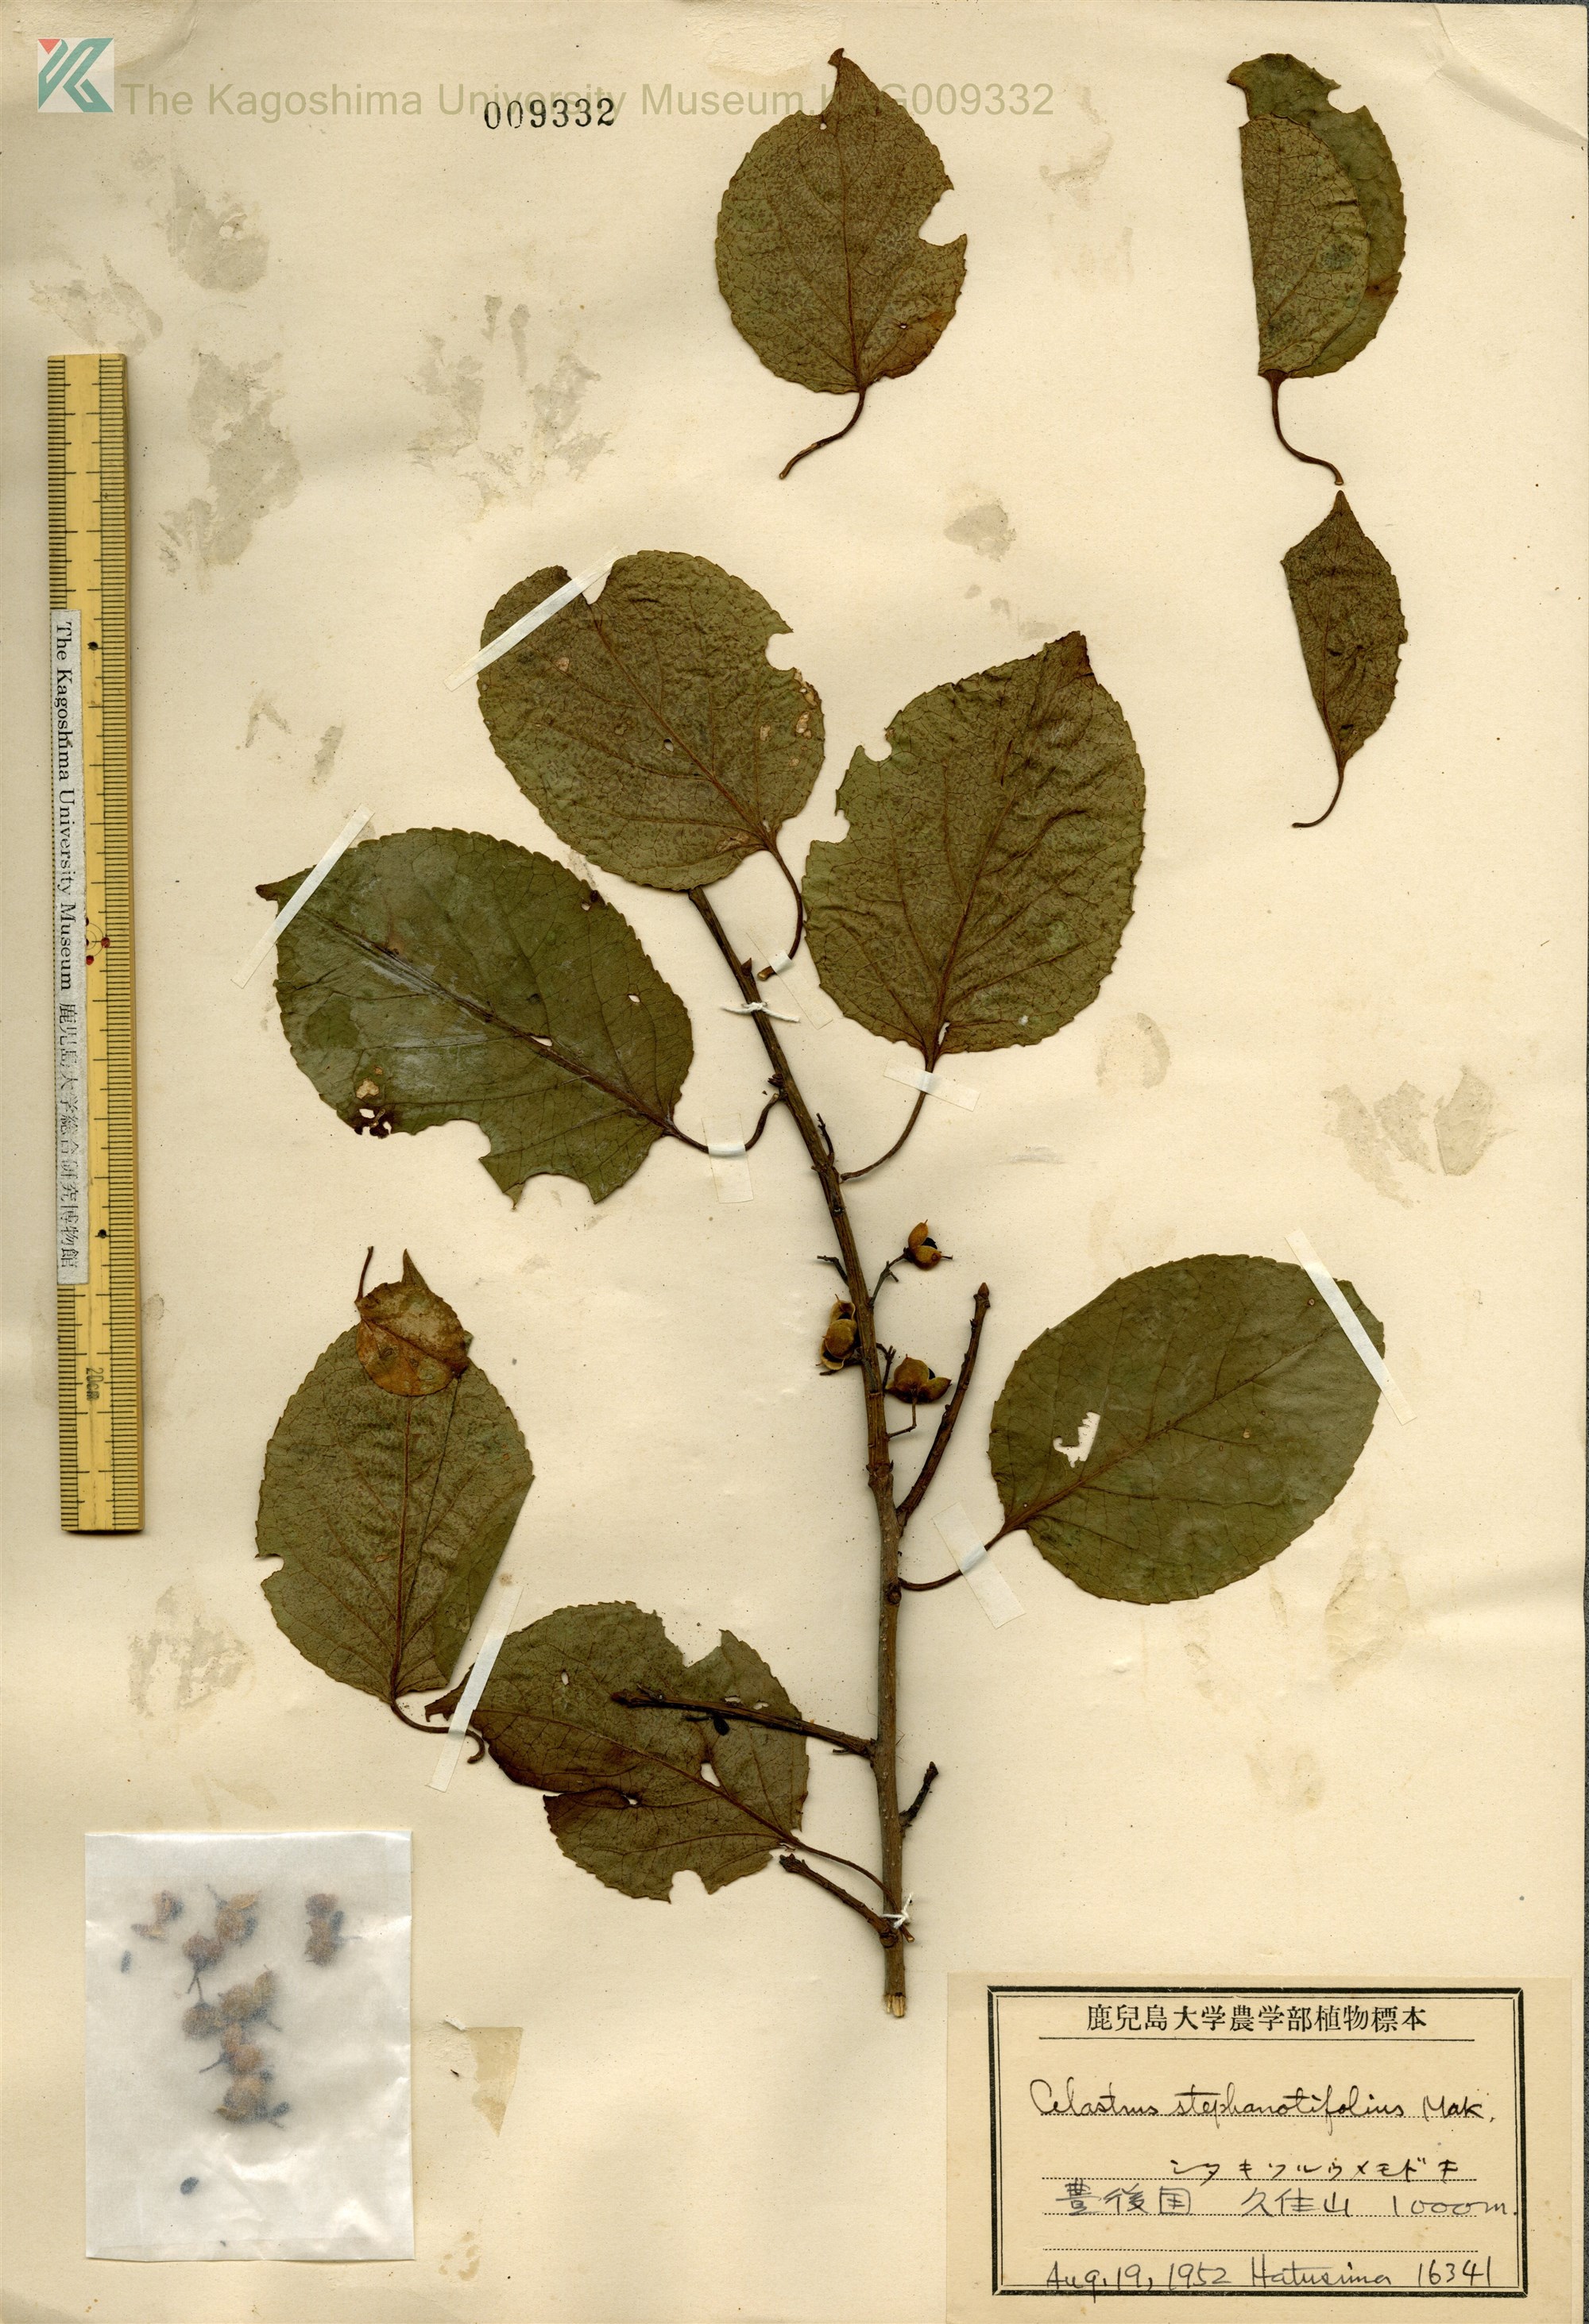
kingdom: Plantae
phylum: Tracheophyta
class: Magnoliopsida
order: Celastrales
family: Celastraceae
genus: Celastrus
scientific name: Celastrus stephanotifolius
